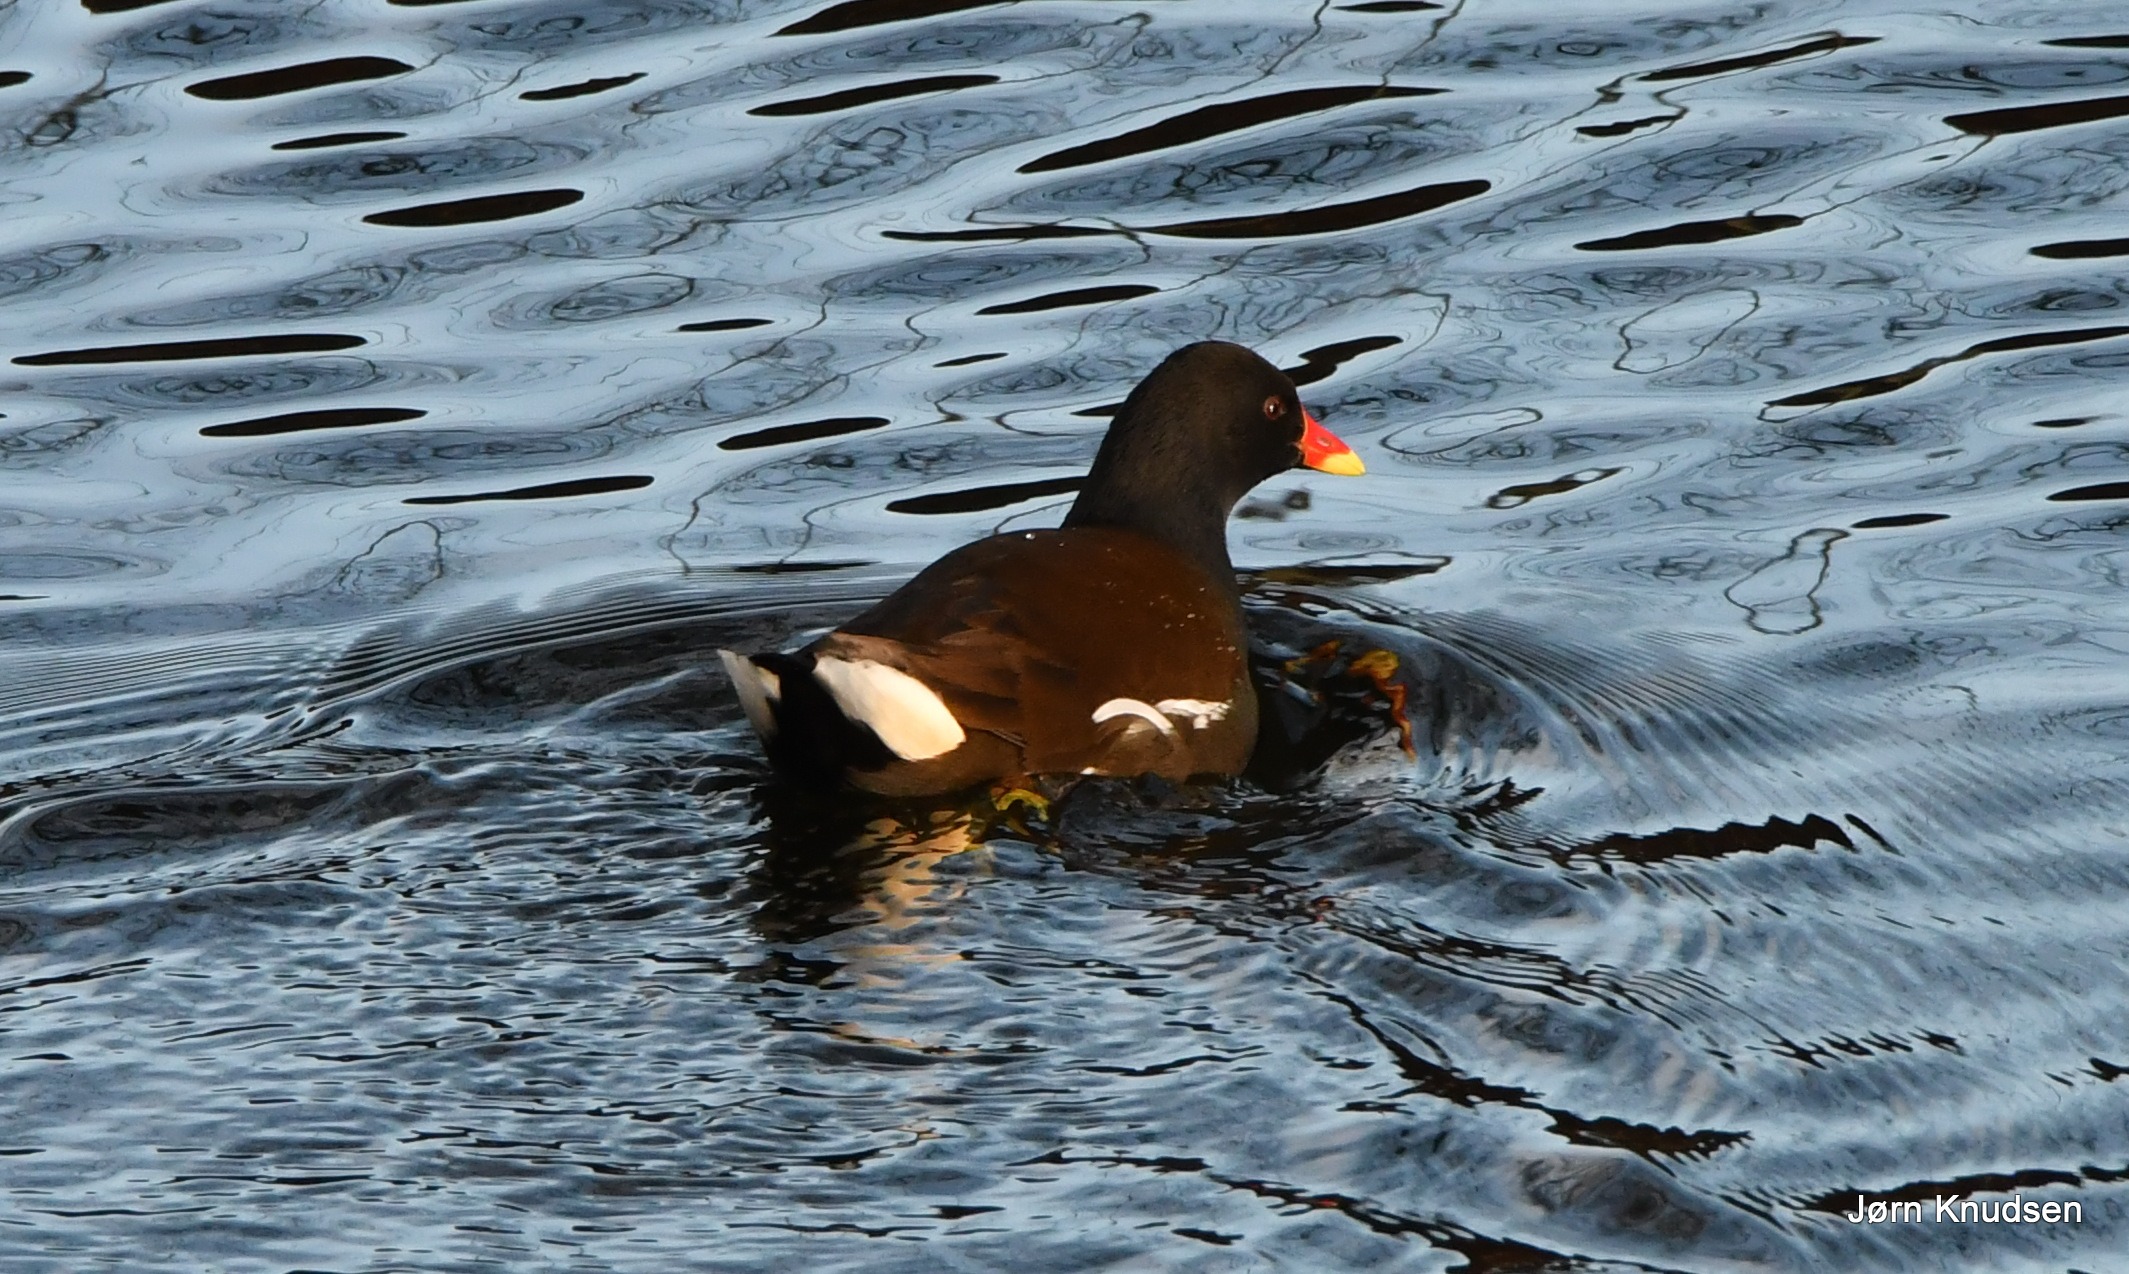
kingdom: Animalia
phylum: Chordata
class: Aves
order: Gruiformes
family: Rallidae
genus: Gallinula
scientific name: Gallinula chloropus
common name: Grønbenet rørhøne
